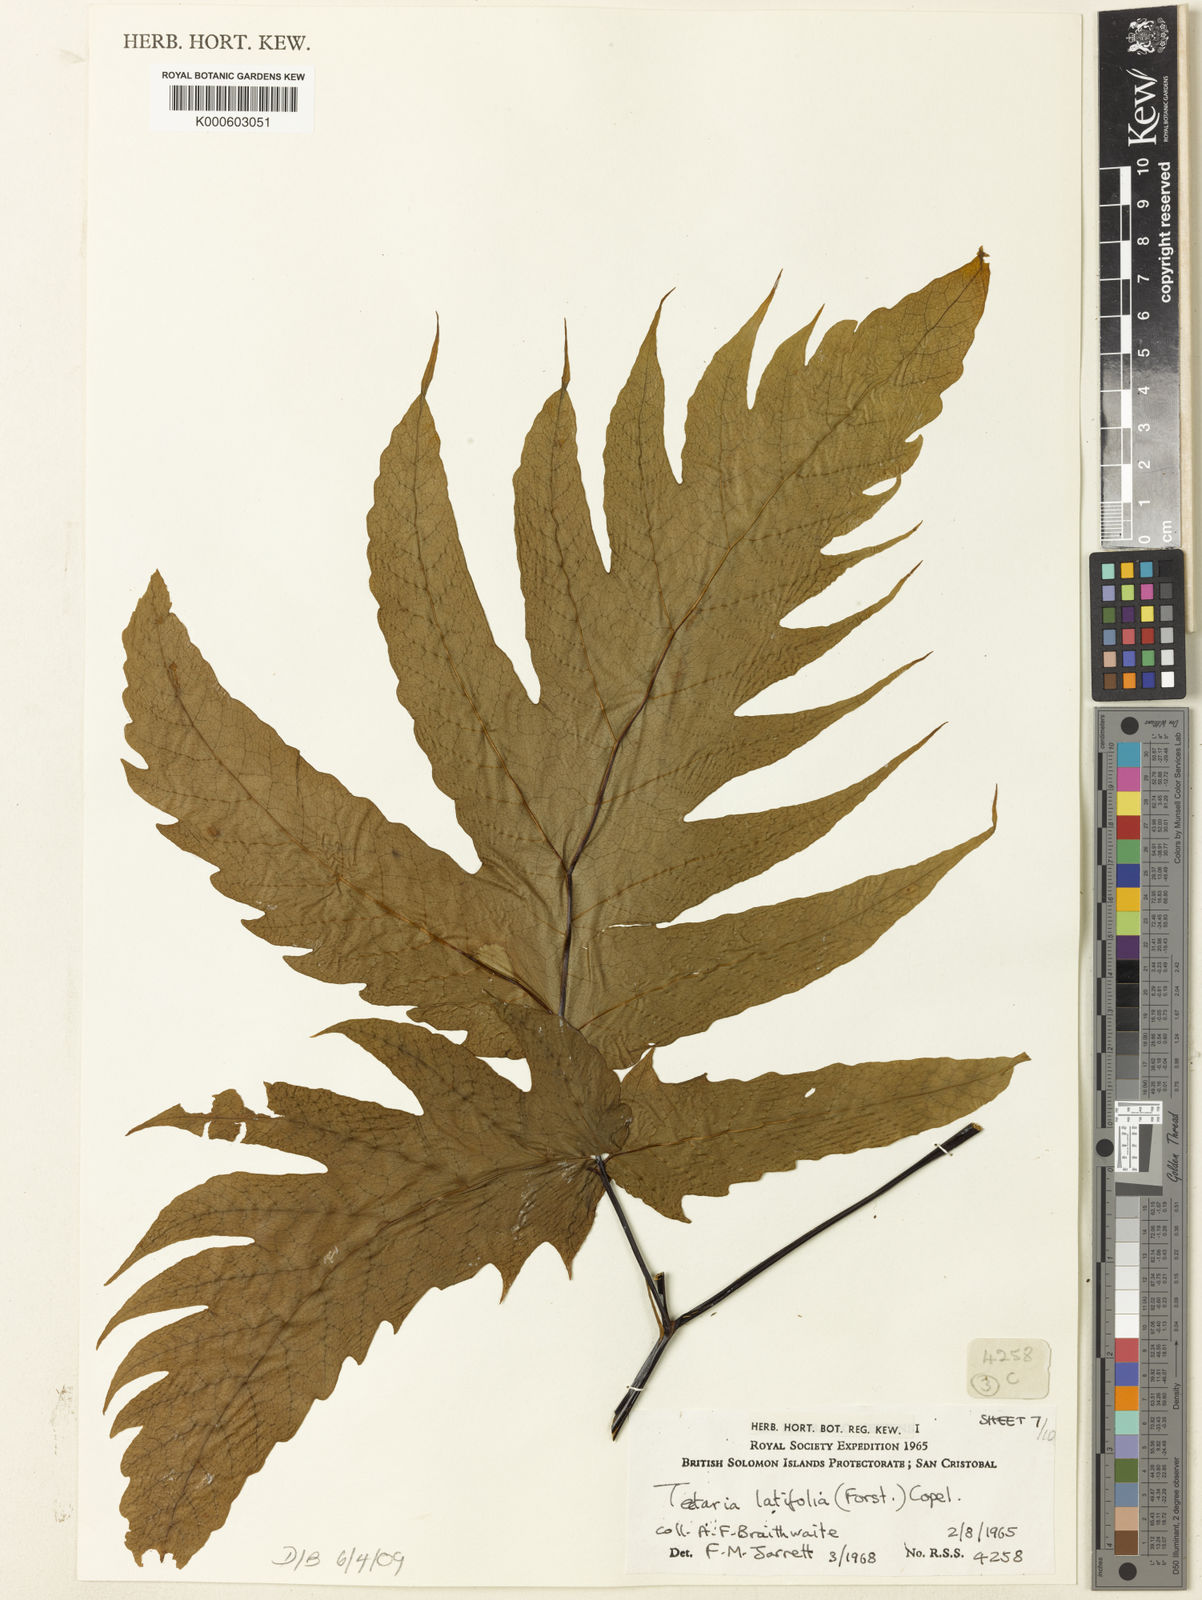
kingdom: Plantae
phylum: Tracheophyta
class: Polypodiopsida
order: Polypodiales
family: Tectariaceae
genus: Tectaria
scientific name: Tectaria
